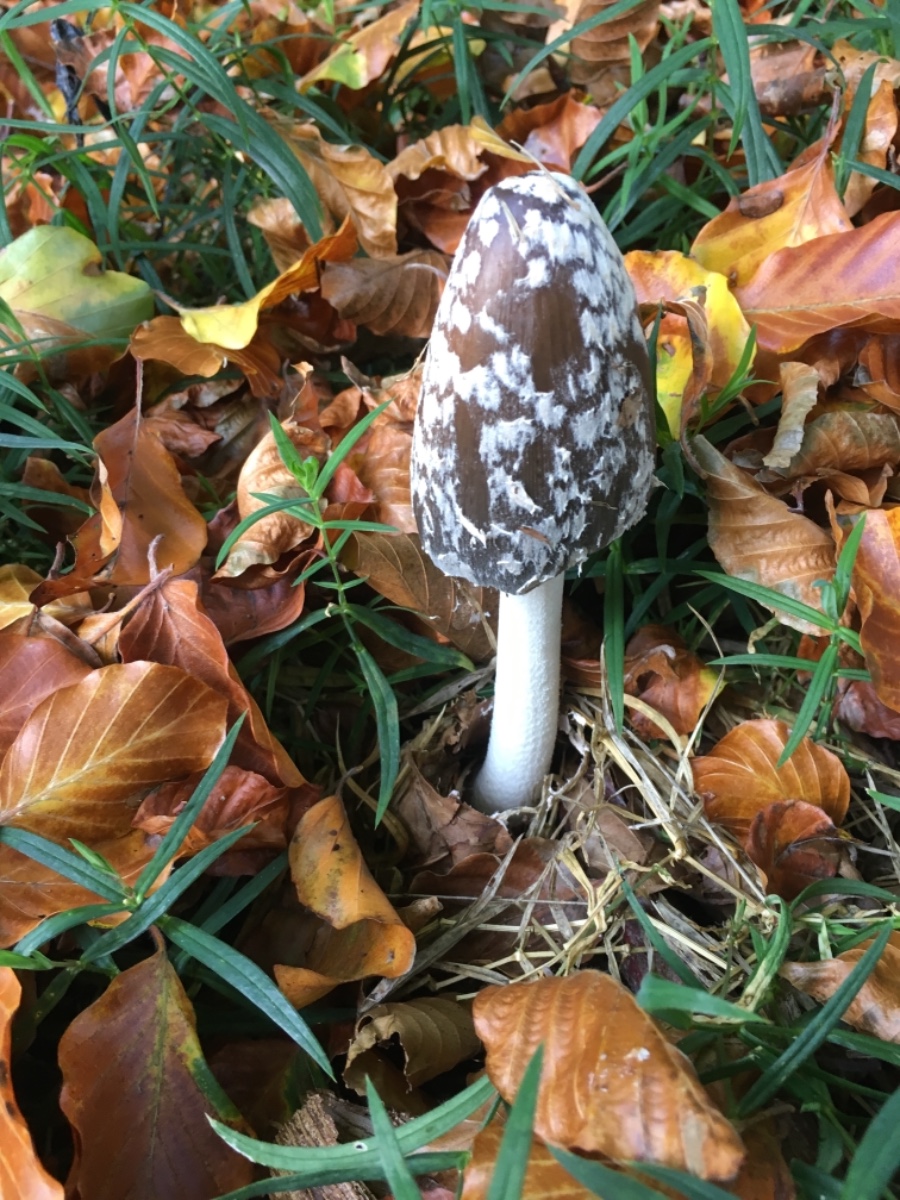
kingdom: Fungi
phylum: Basidiomycota
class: Agaricomycetes
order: Agaricales
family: Psathyrellaceae
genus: Coprinopsis
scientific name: Coprinopsis picacea
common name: skade-blækhat
